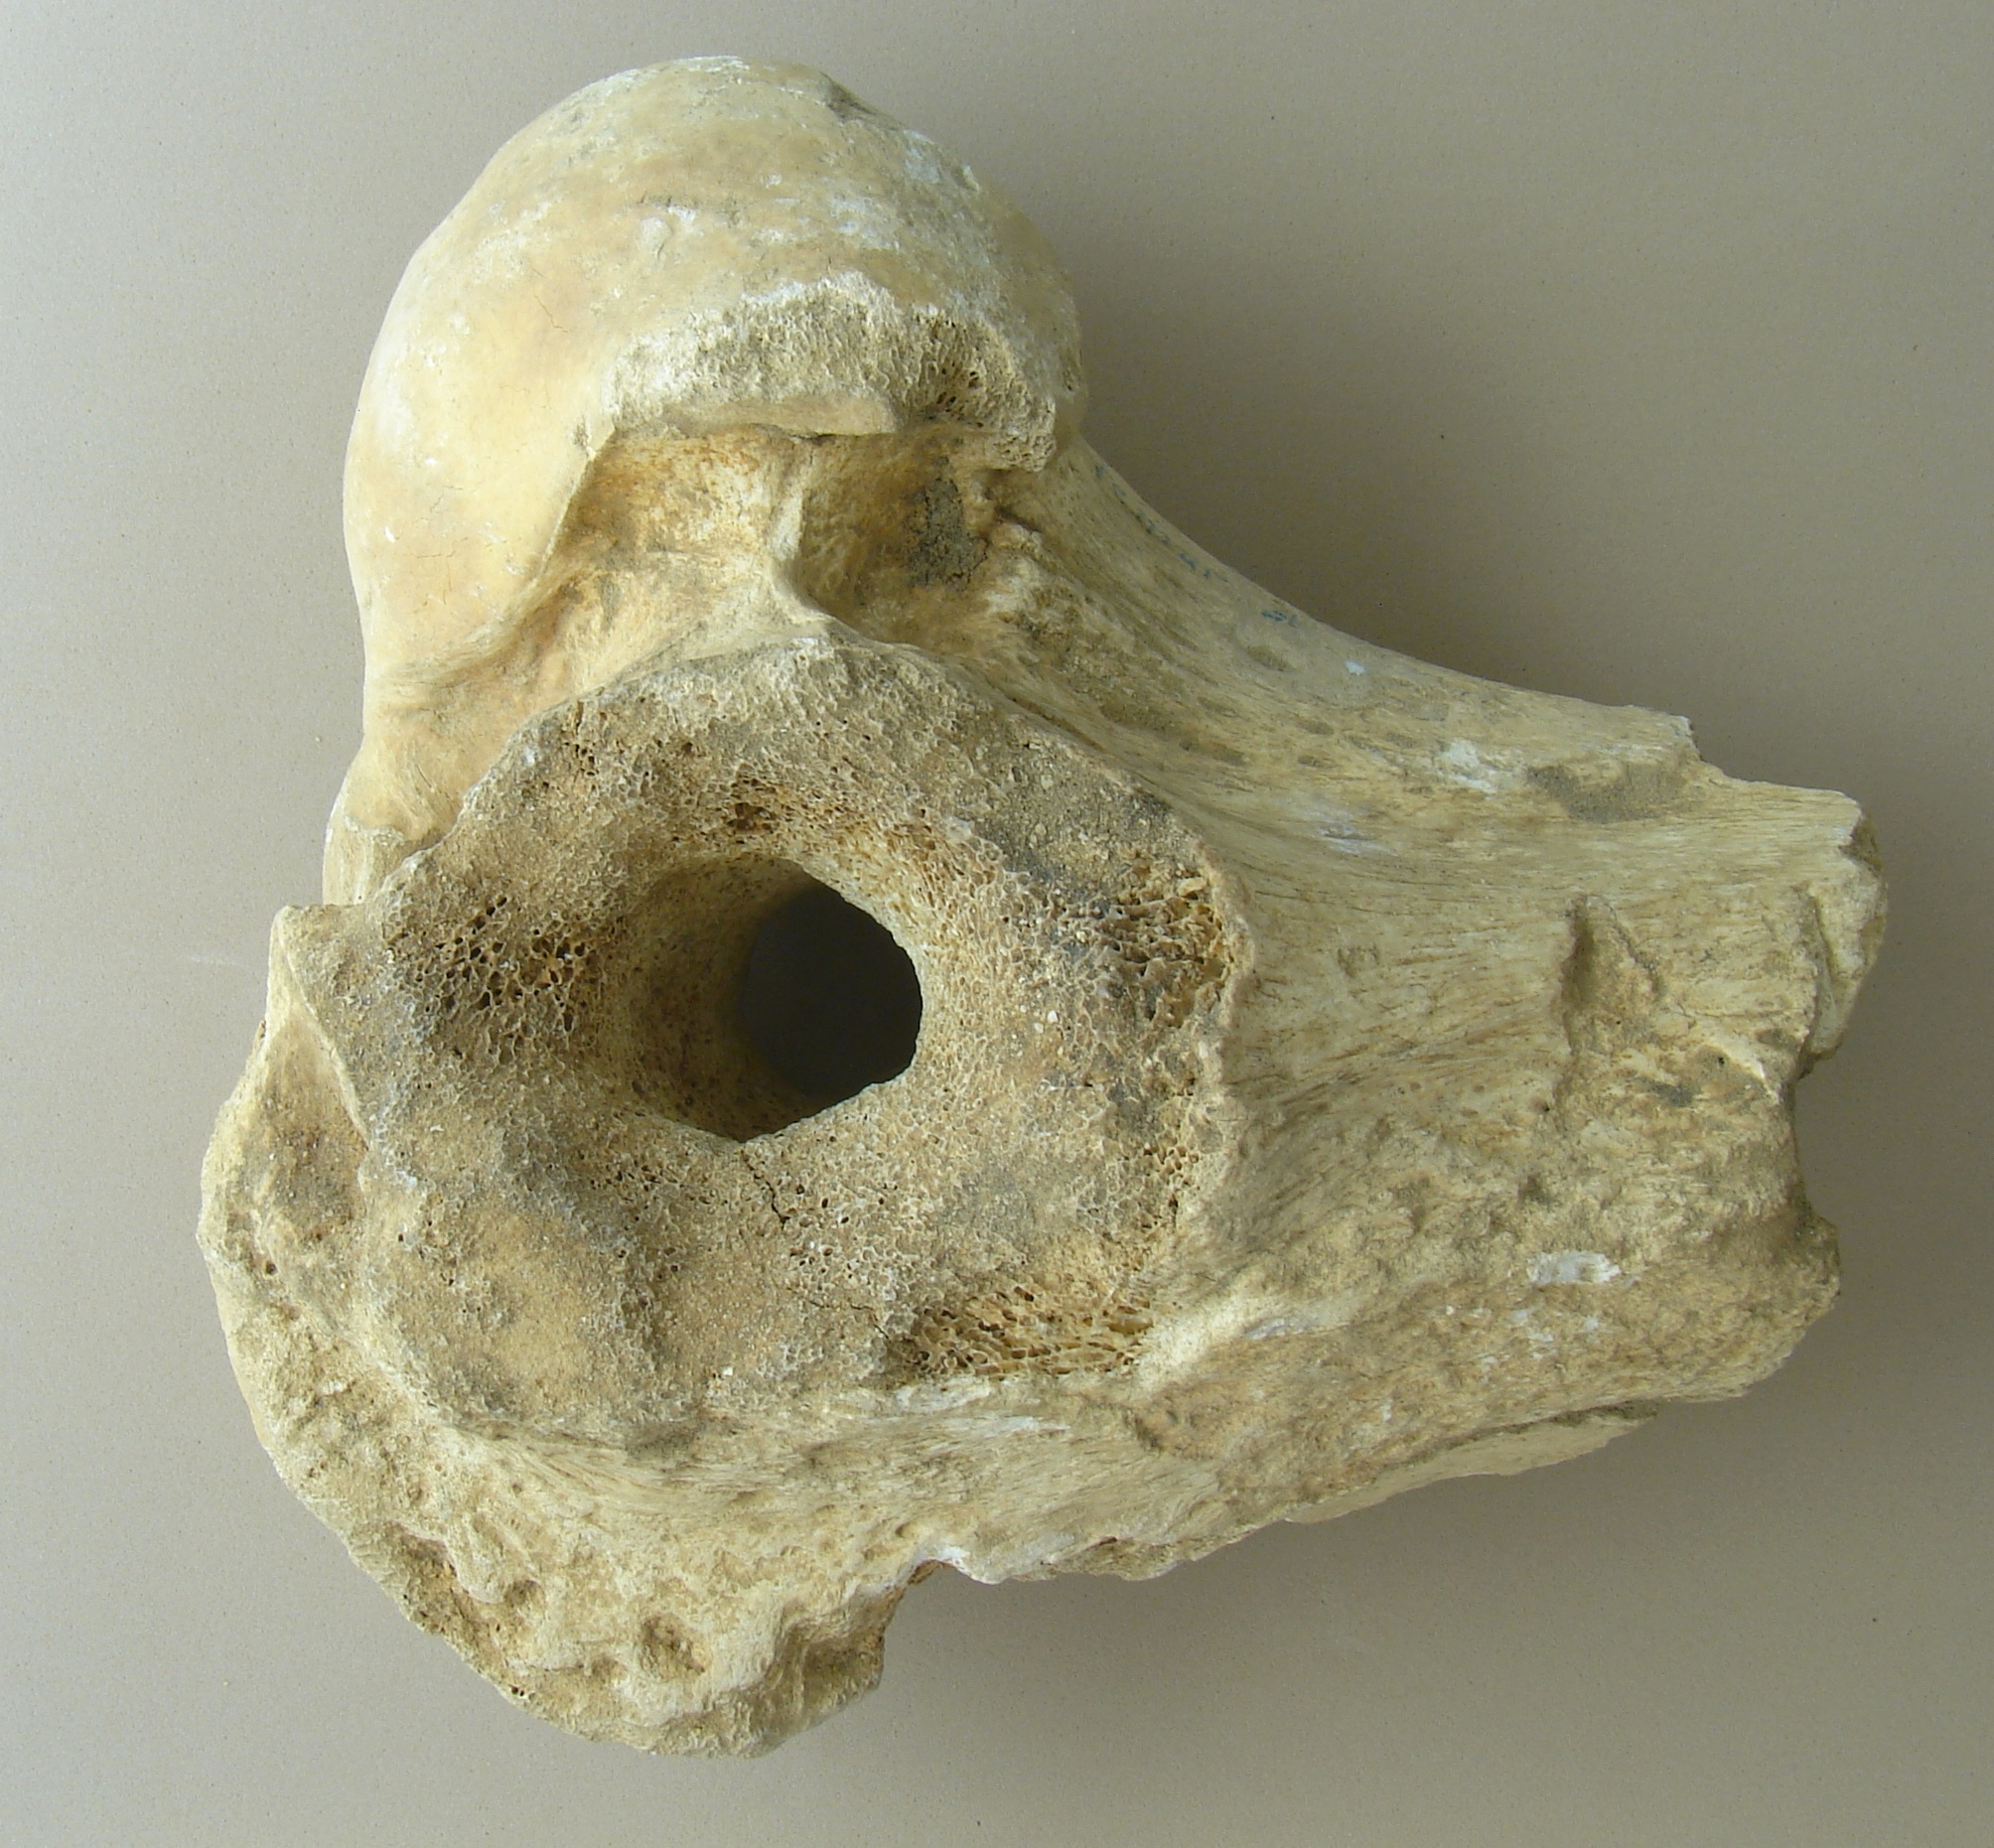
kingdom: Animalia
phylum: Chordata
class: Mammalia
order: Artiodactyla
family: Bovidae
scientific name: Bovidae
